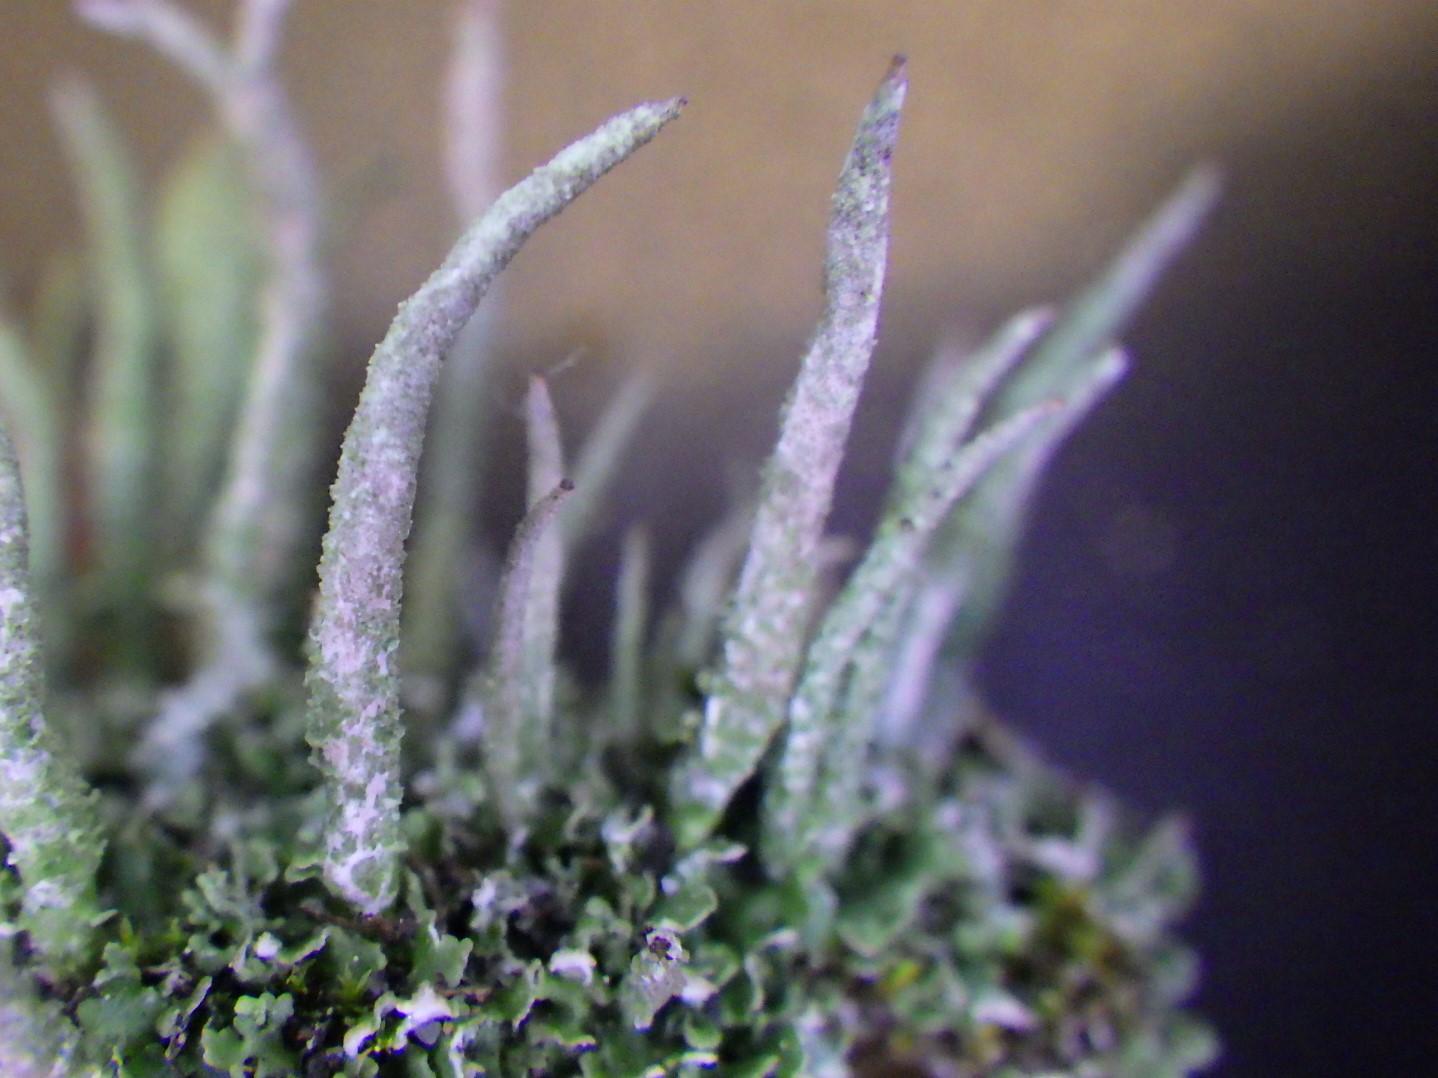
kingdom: Fungi
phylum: Ascomycota
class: Lecanoromycetes
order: Lecanorales
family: Cladoniaceae
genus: Cladonia
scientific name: Cladonia cornuta
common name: syl-bægerlav
